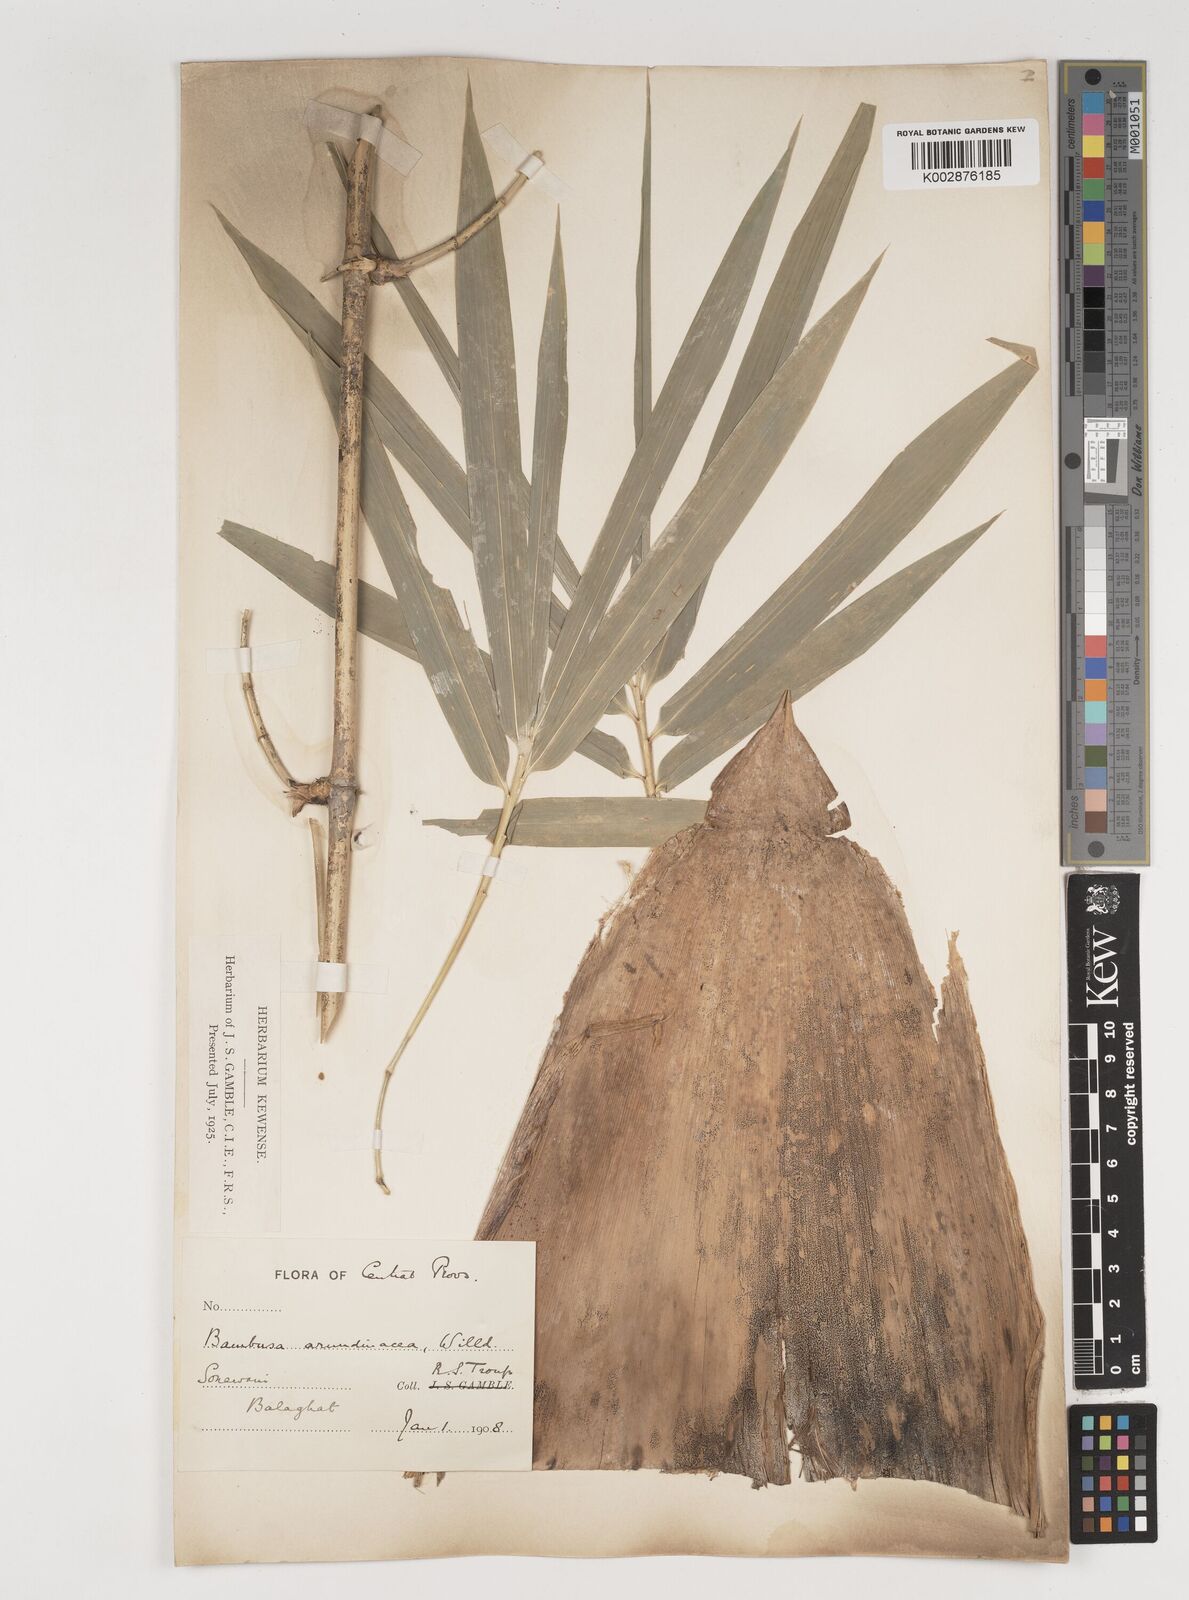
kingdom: Plantae
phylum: Tracheophyta
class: Liliopsida
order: Poales
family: Poaceae
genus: Bambusa
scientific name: Bambusa bambos
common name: Indian thorny bamboo
